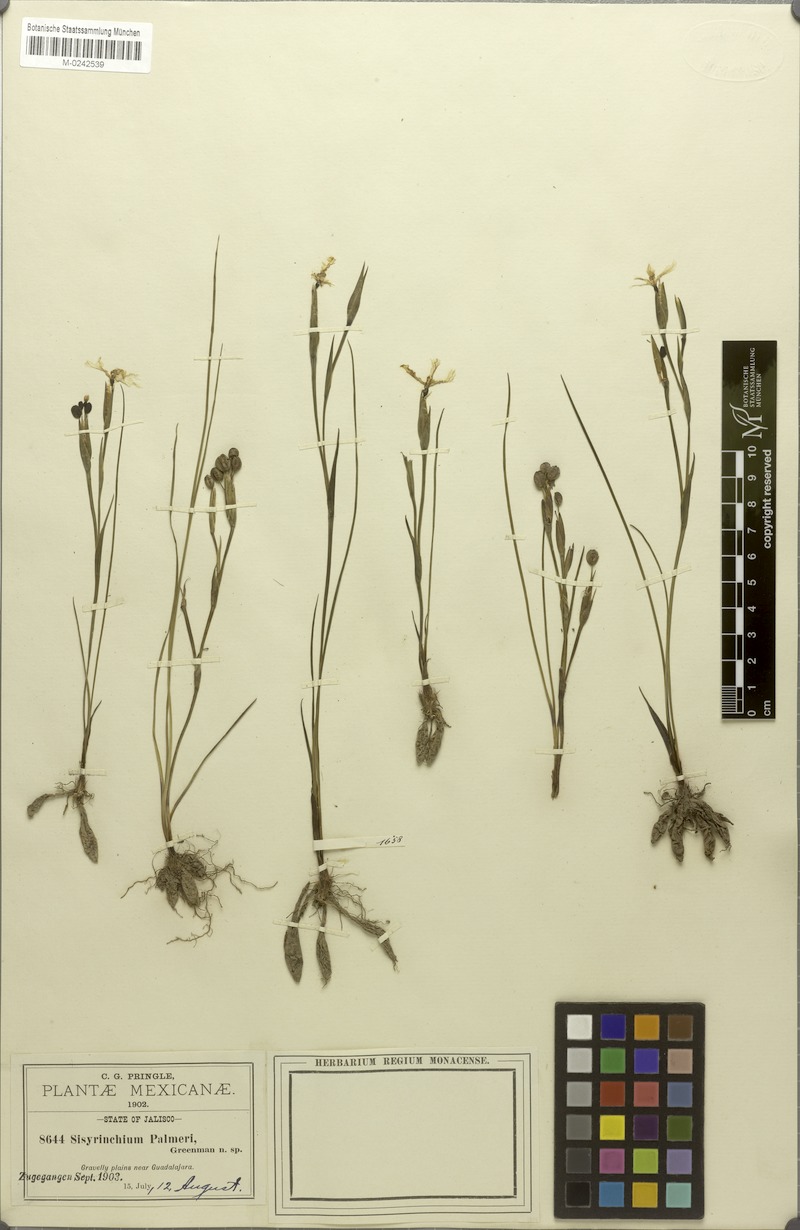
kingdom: Plantae
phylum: Tracheophyta
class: Liliopsida
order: Asparagales
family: Iridaceae
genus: Sisyrinchium
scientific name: Sisyrinchium tolucense
